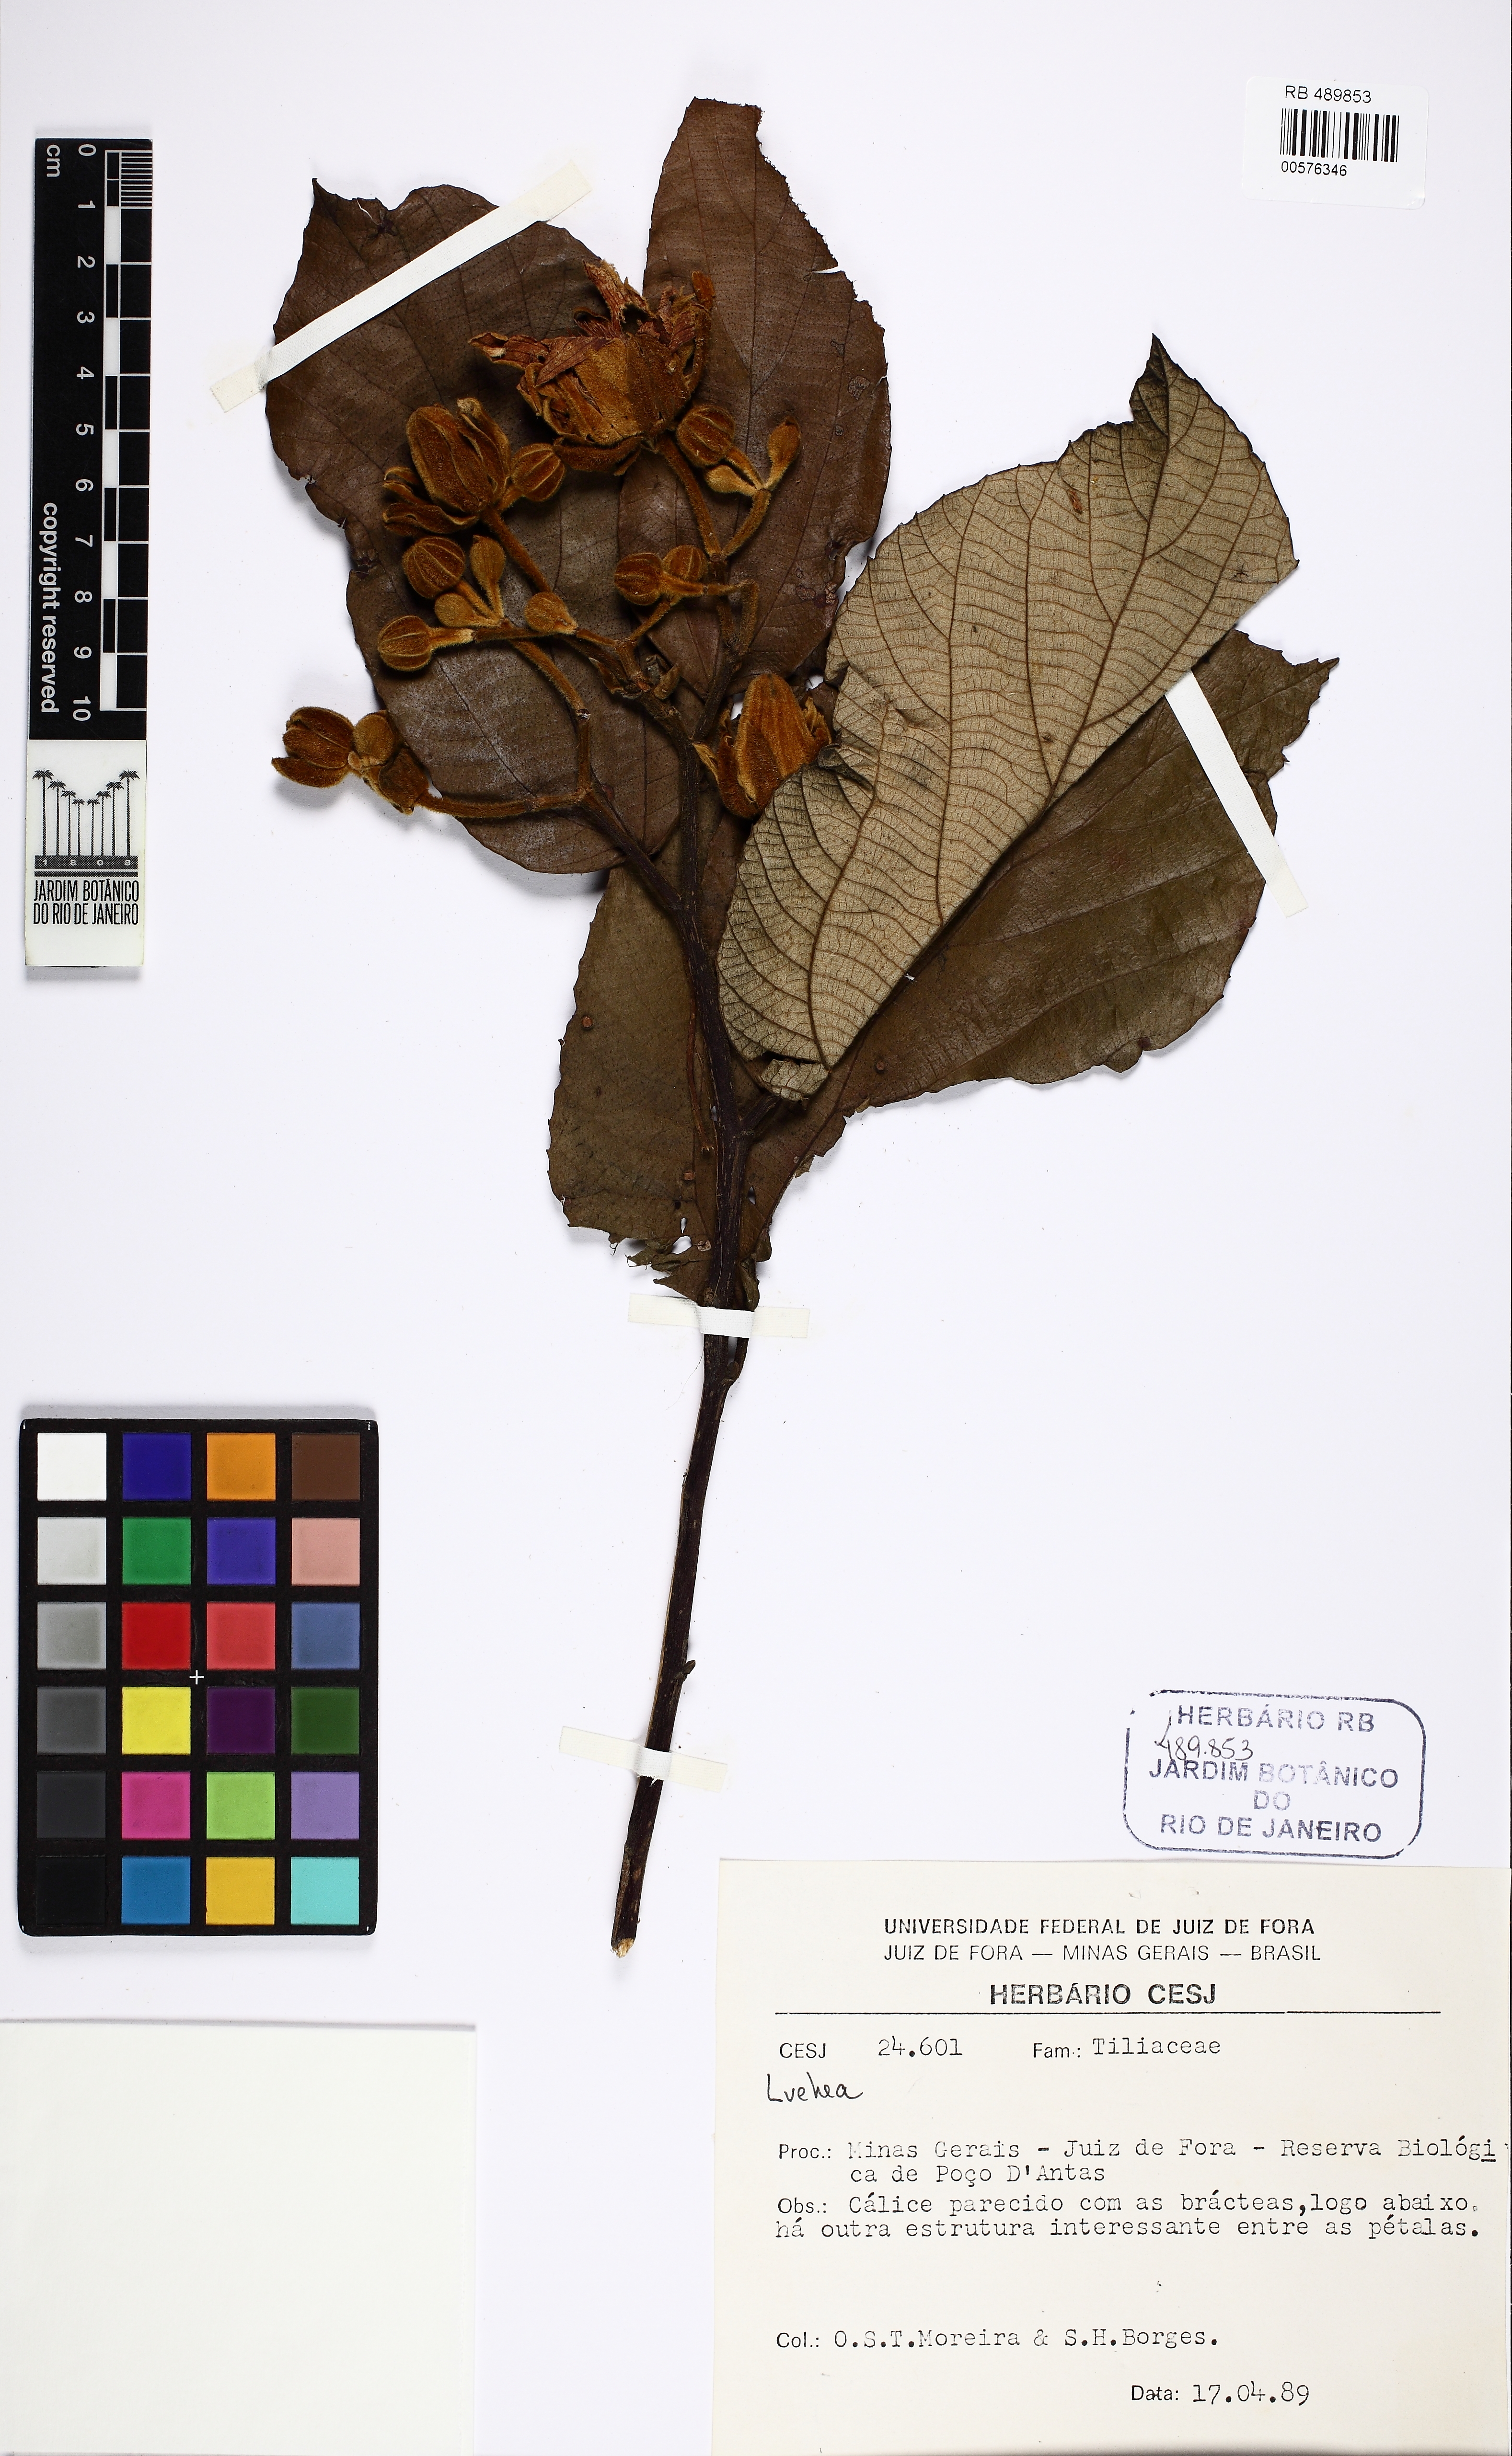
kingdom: Plantae
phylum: Tracheophyta
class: Magnoliopsida
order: Malvales
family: Malvaceae
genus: Luehea
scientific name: Luehea
